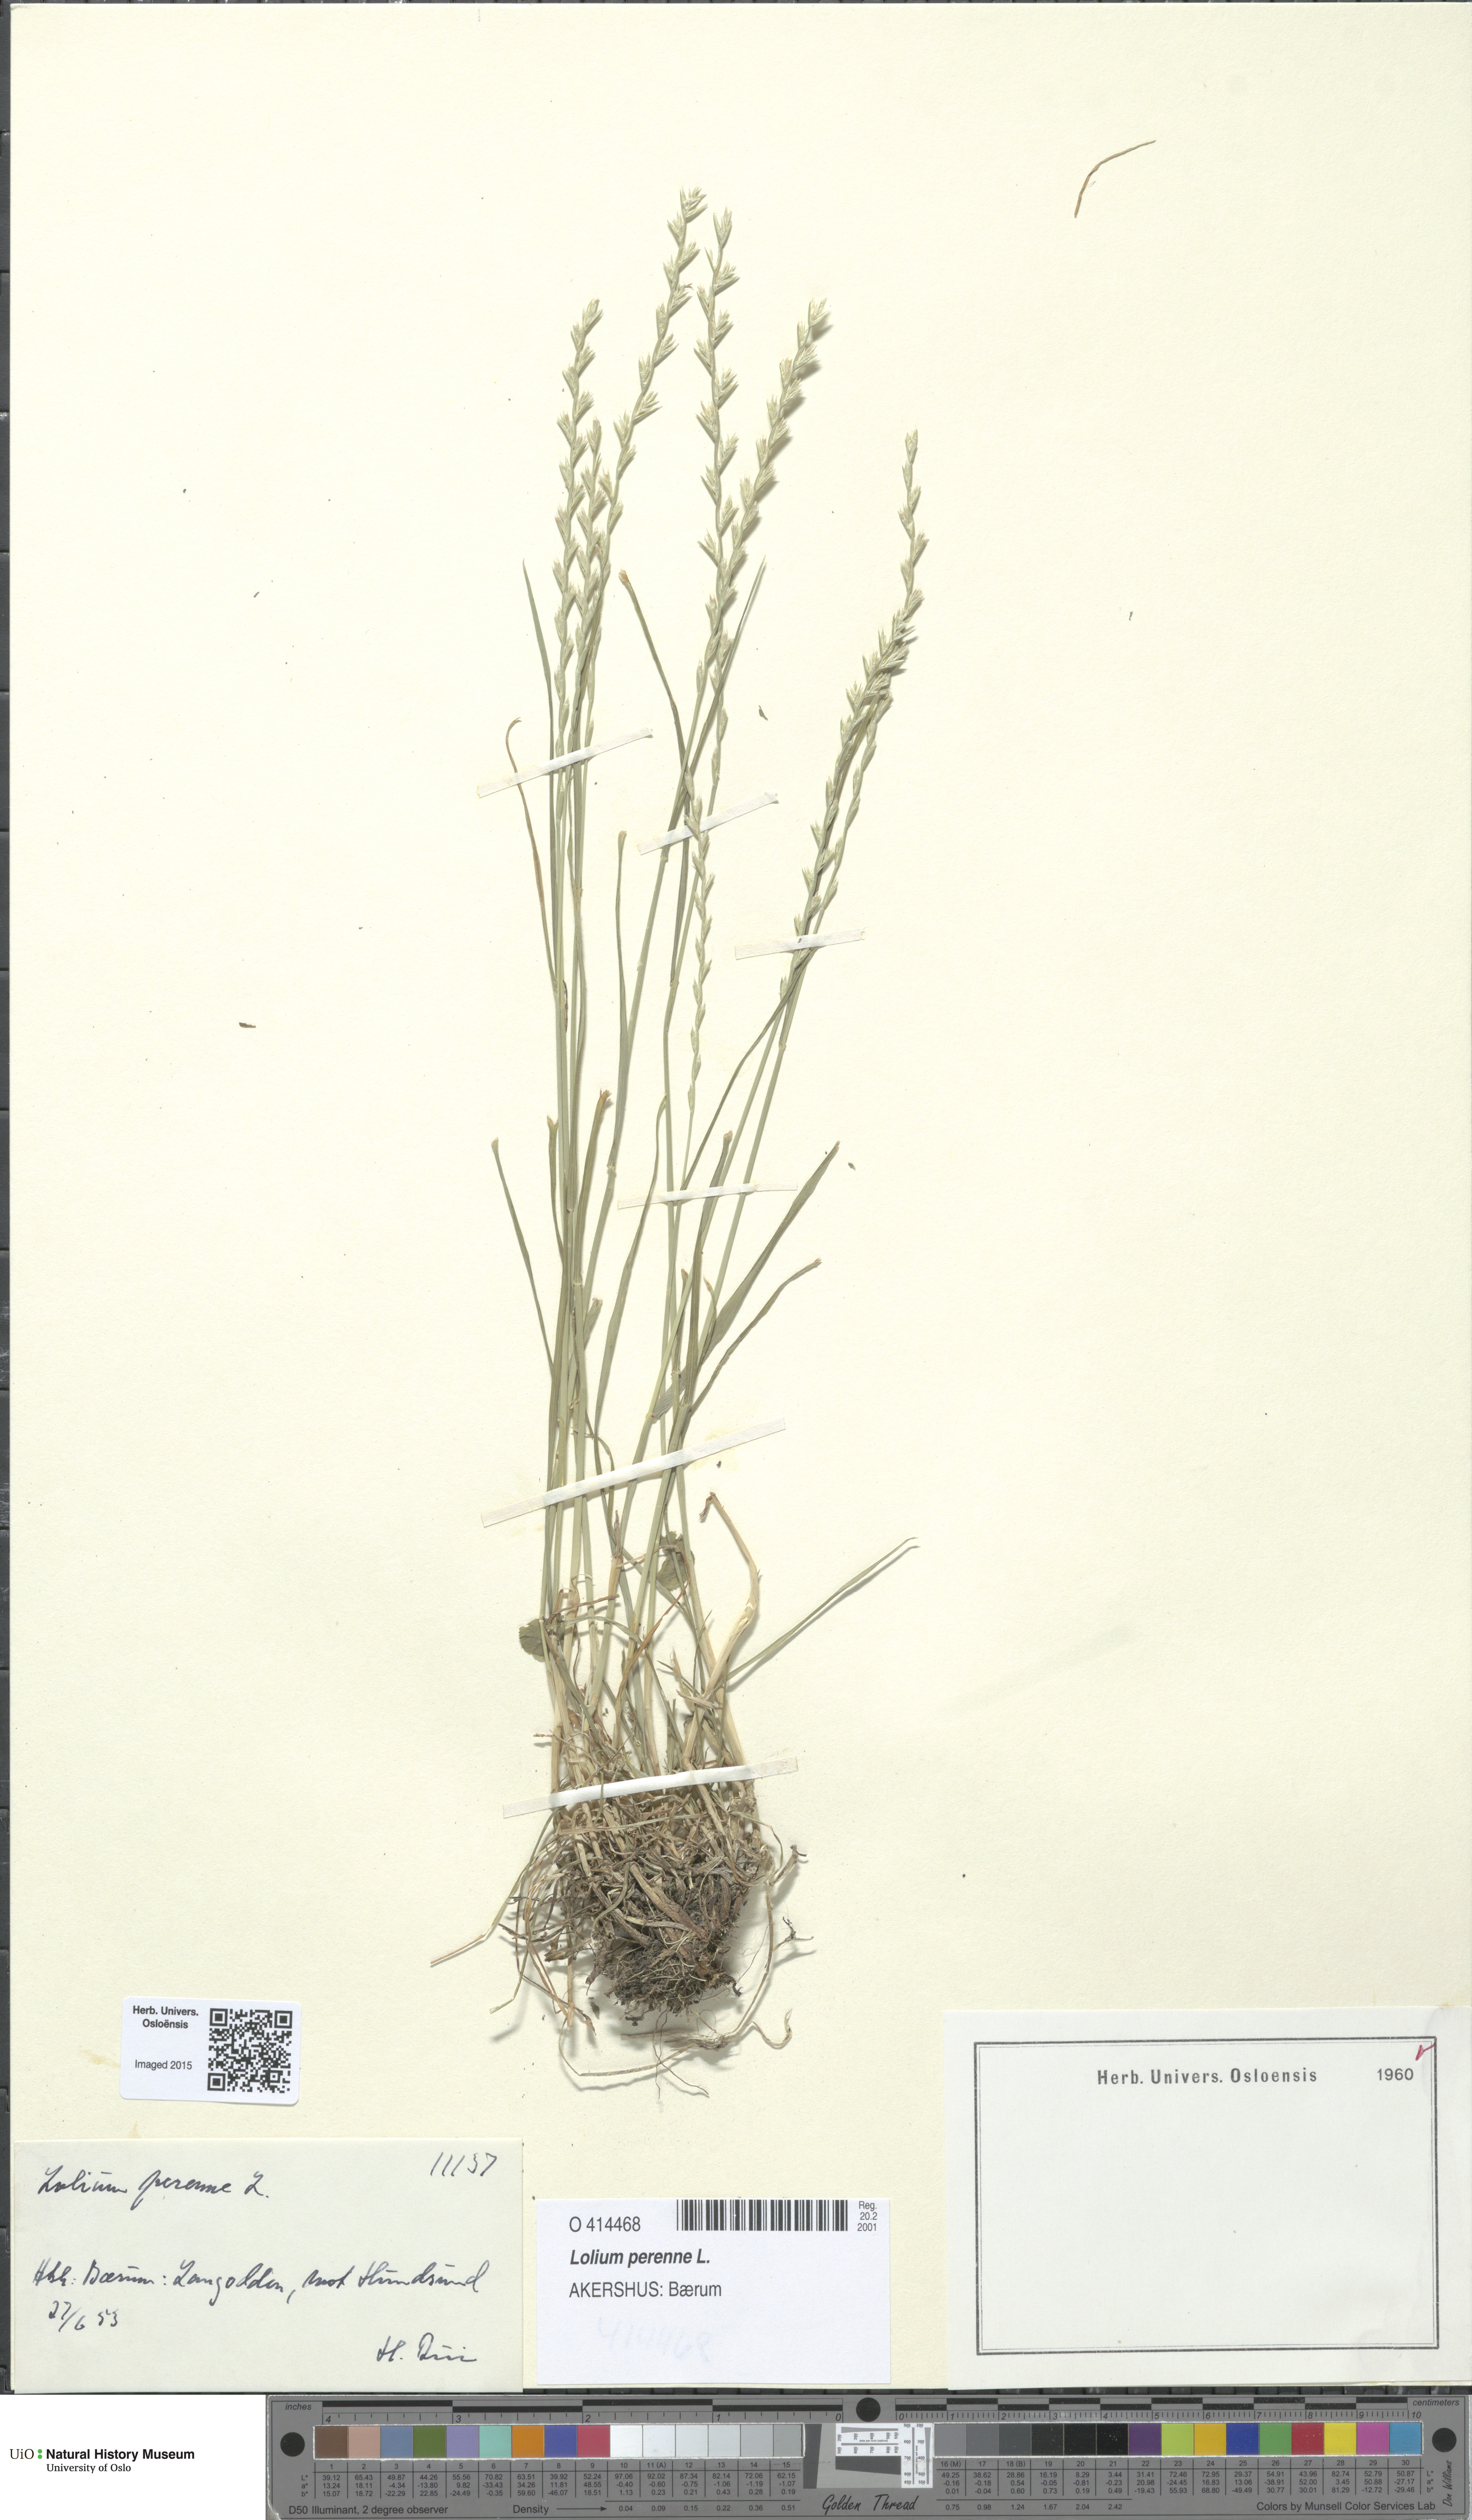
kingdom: Plantae
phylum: Tracheophyta
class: Liliopsida
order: Poales
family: Poaceae
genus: Lolium
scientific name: Lolium perenne
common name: Perennial ryegrass
